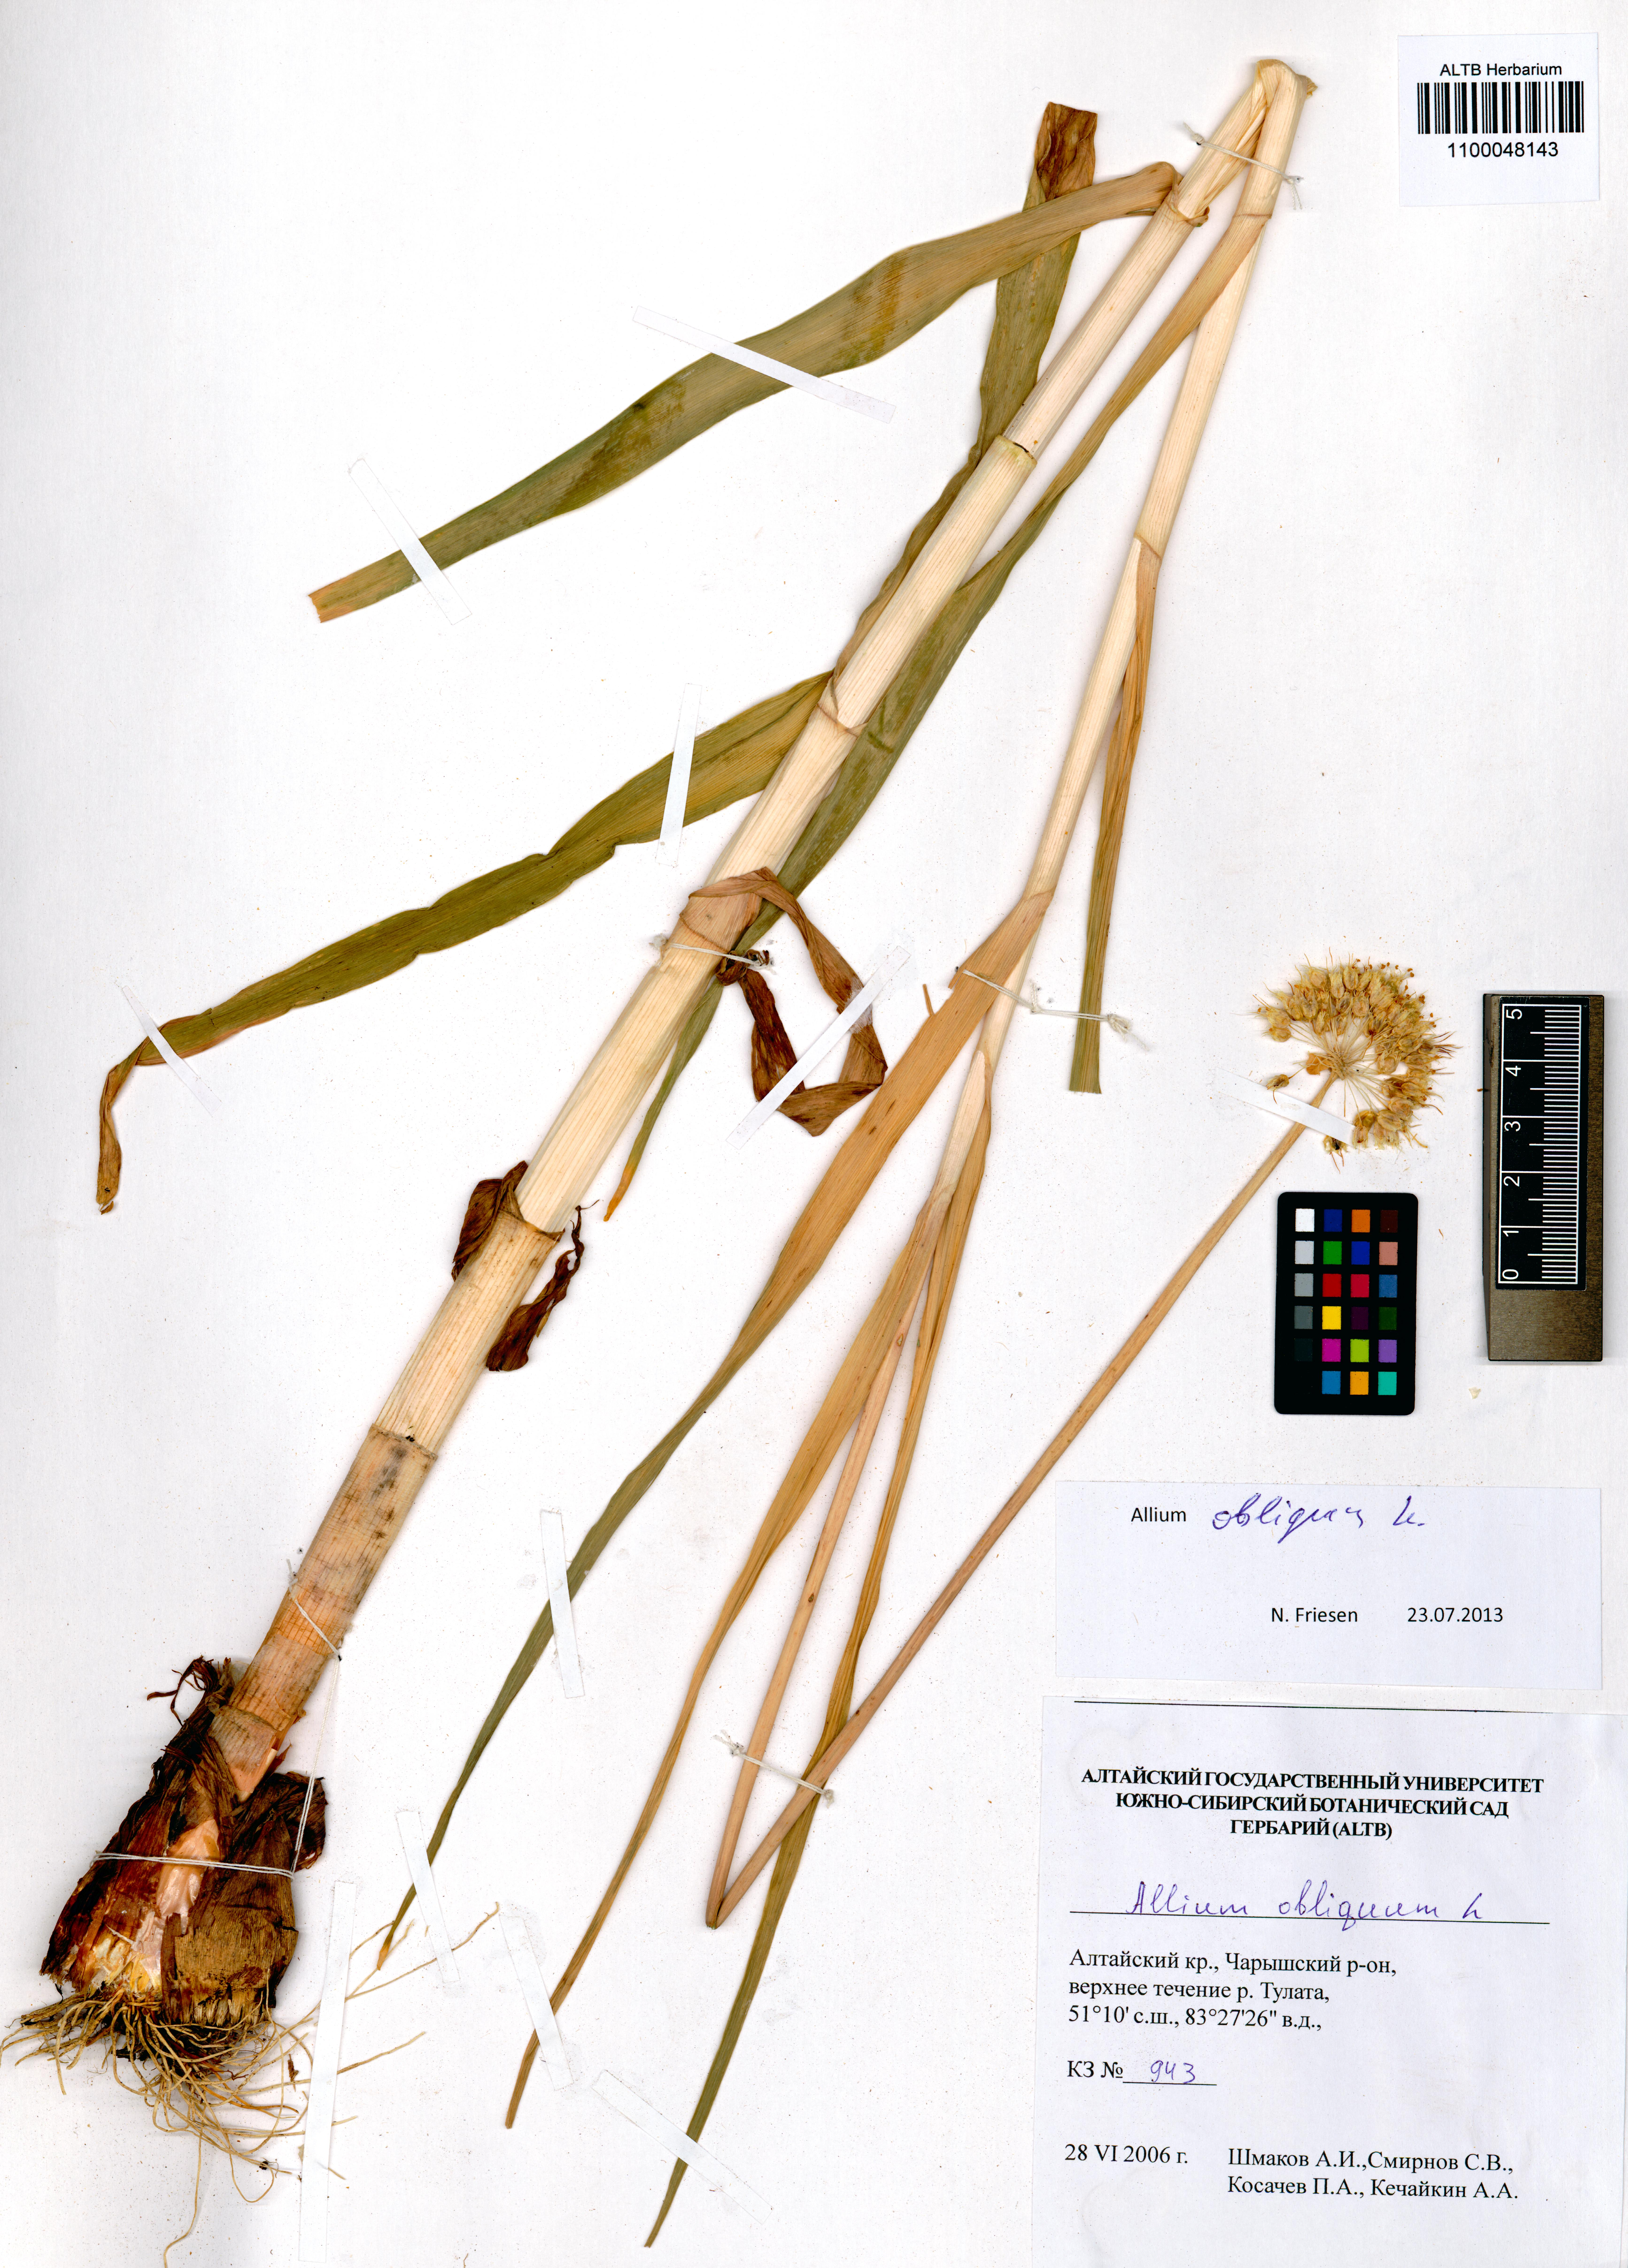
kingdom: Plantae
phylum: Tracheophyta
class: Liliopsida
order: Asparagales
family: Amaryllidaceae
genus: Allium
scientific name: Allium obliquum
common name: Oblique onion
